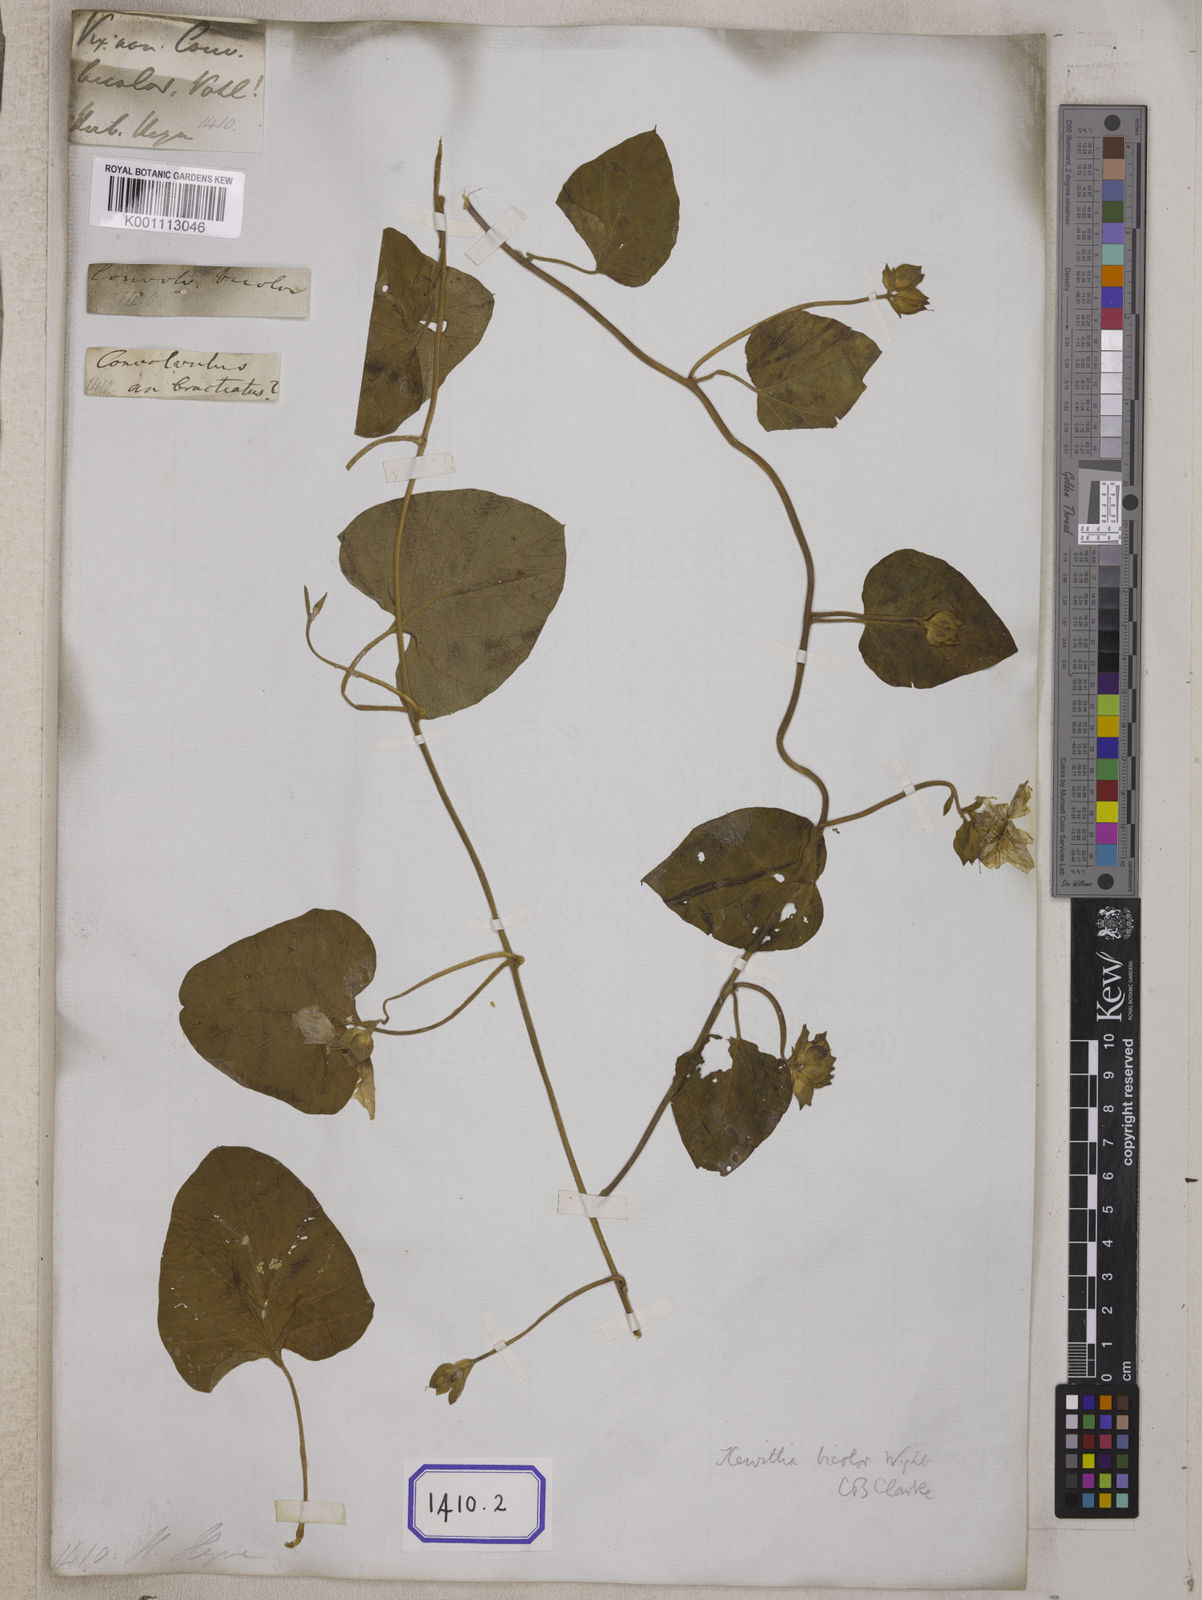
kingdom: Plantae
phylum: Tracheophyta
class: Magnoliopsida
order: Solanales
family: Convolvulaceae
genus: Convolvulus
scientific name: Convolvulus
